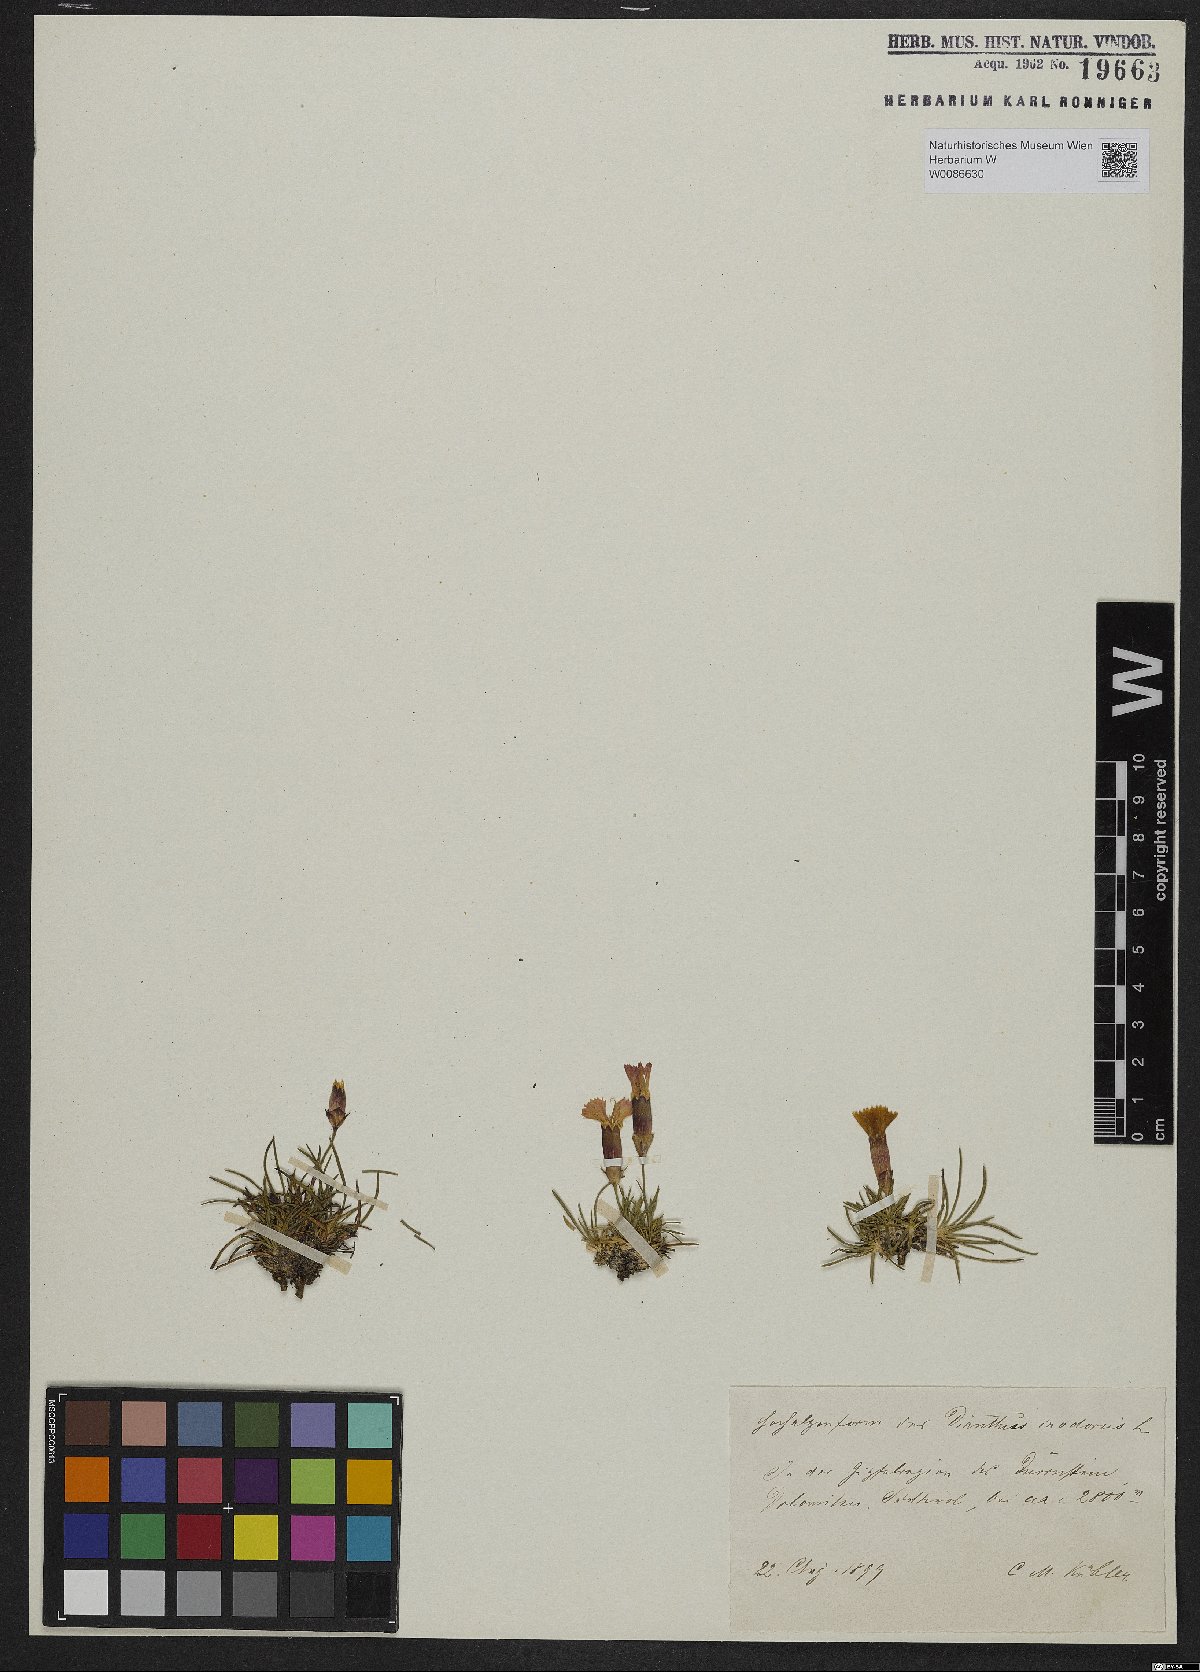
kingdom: Plantae
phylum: Tracheophyta
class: Magnoliopsida
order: Caryophyllales
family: Caryophyllaceae
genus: Dianthus
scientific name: Dianthus sylvestris
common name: Wood pink
